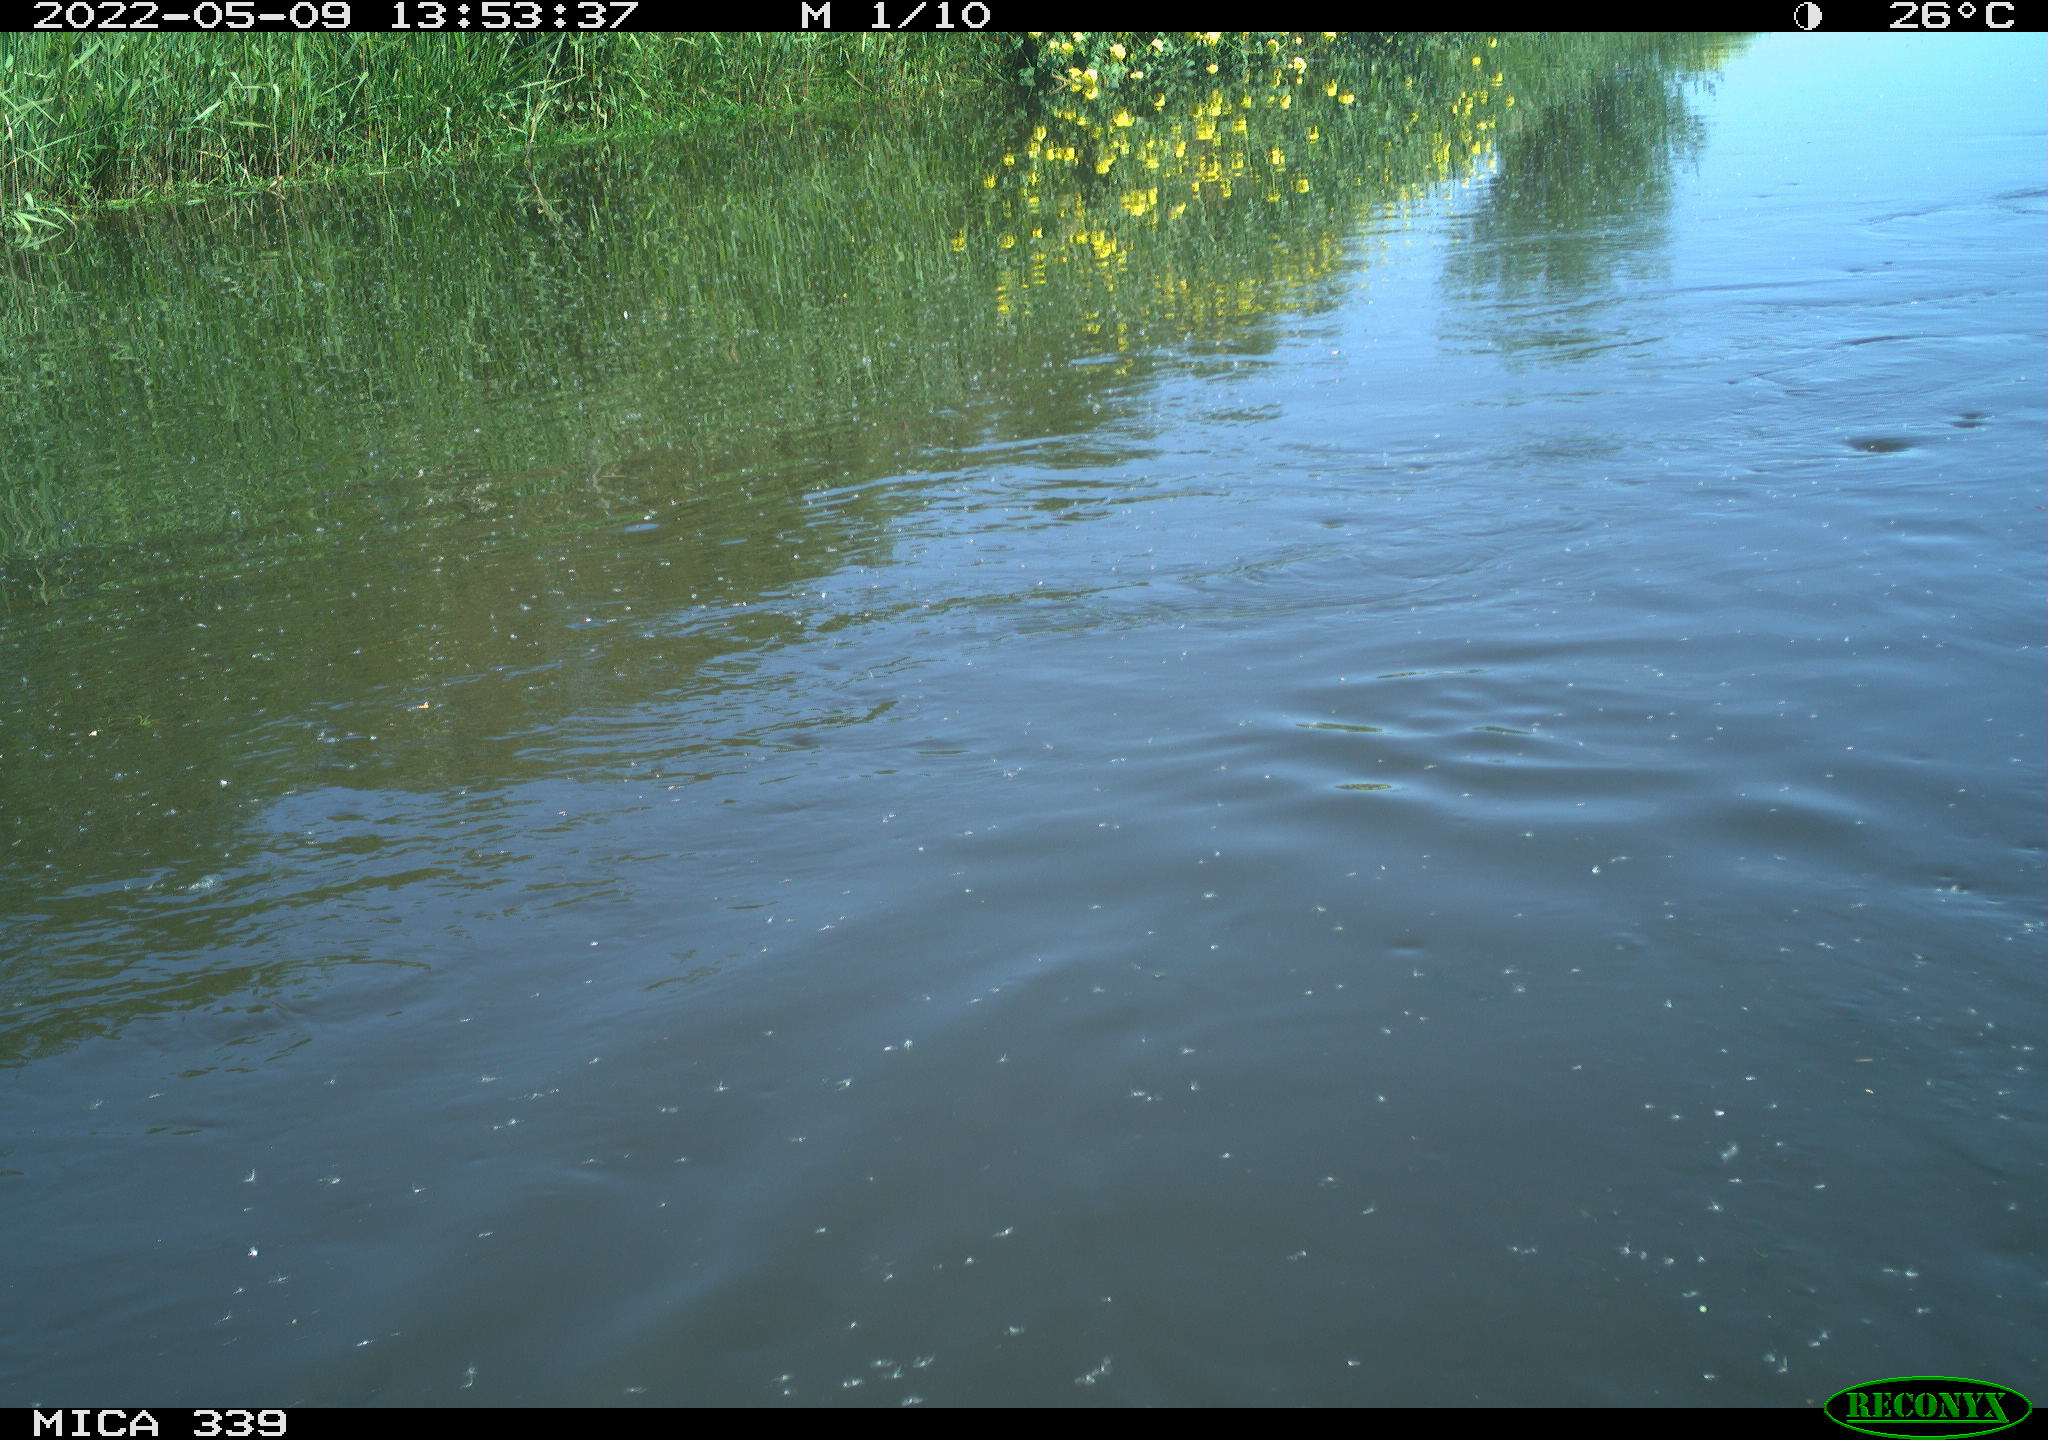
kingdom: Animalia
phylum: Chordata
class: Aves
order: Anseriformes
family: Anatidae
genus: Anas
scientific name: Anas platyrhynchos
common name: Mallard
